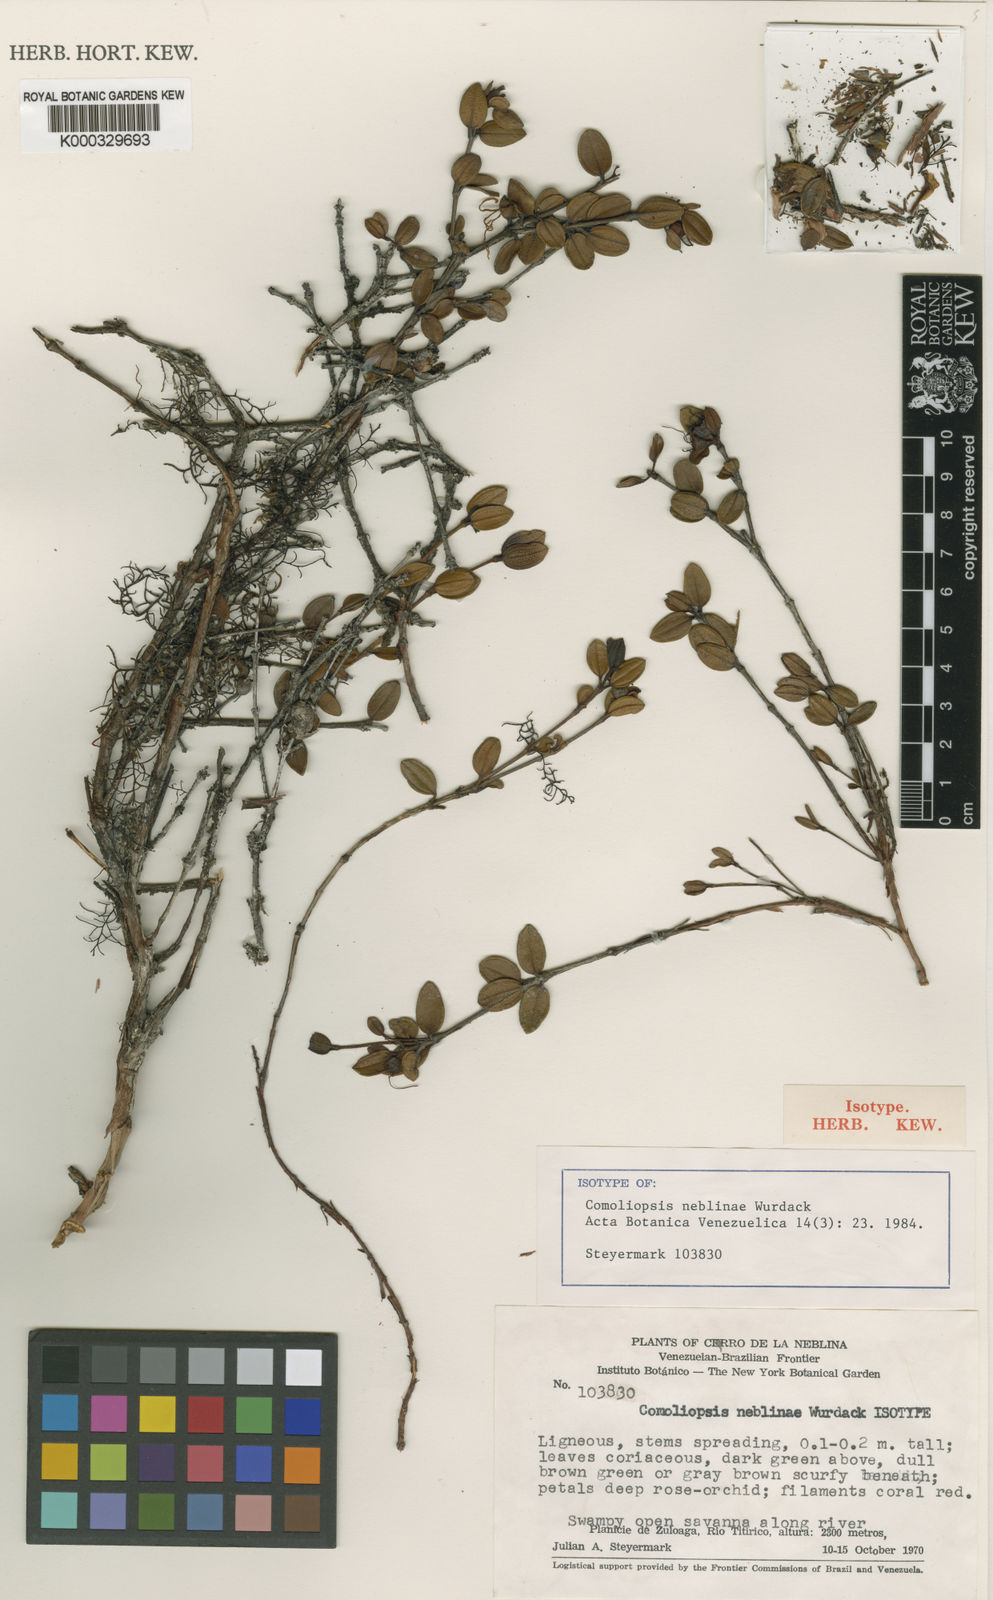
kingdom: Plantae
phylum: Tracheophyta
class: Magnoliopsida
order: Myrtales
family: Melastomataceae
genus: Comoliopsis
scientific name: Comoliopsis neblinae
